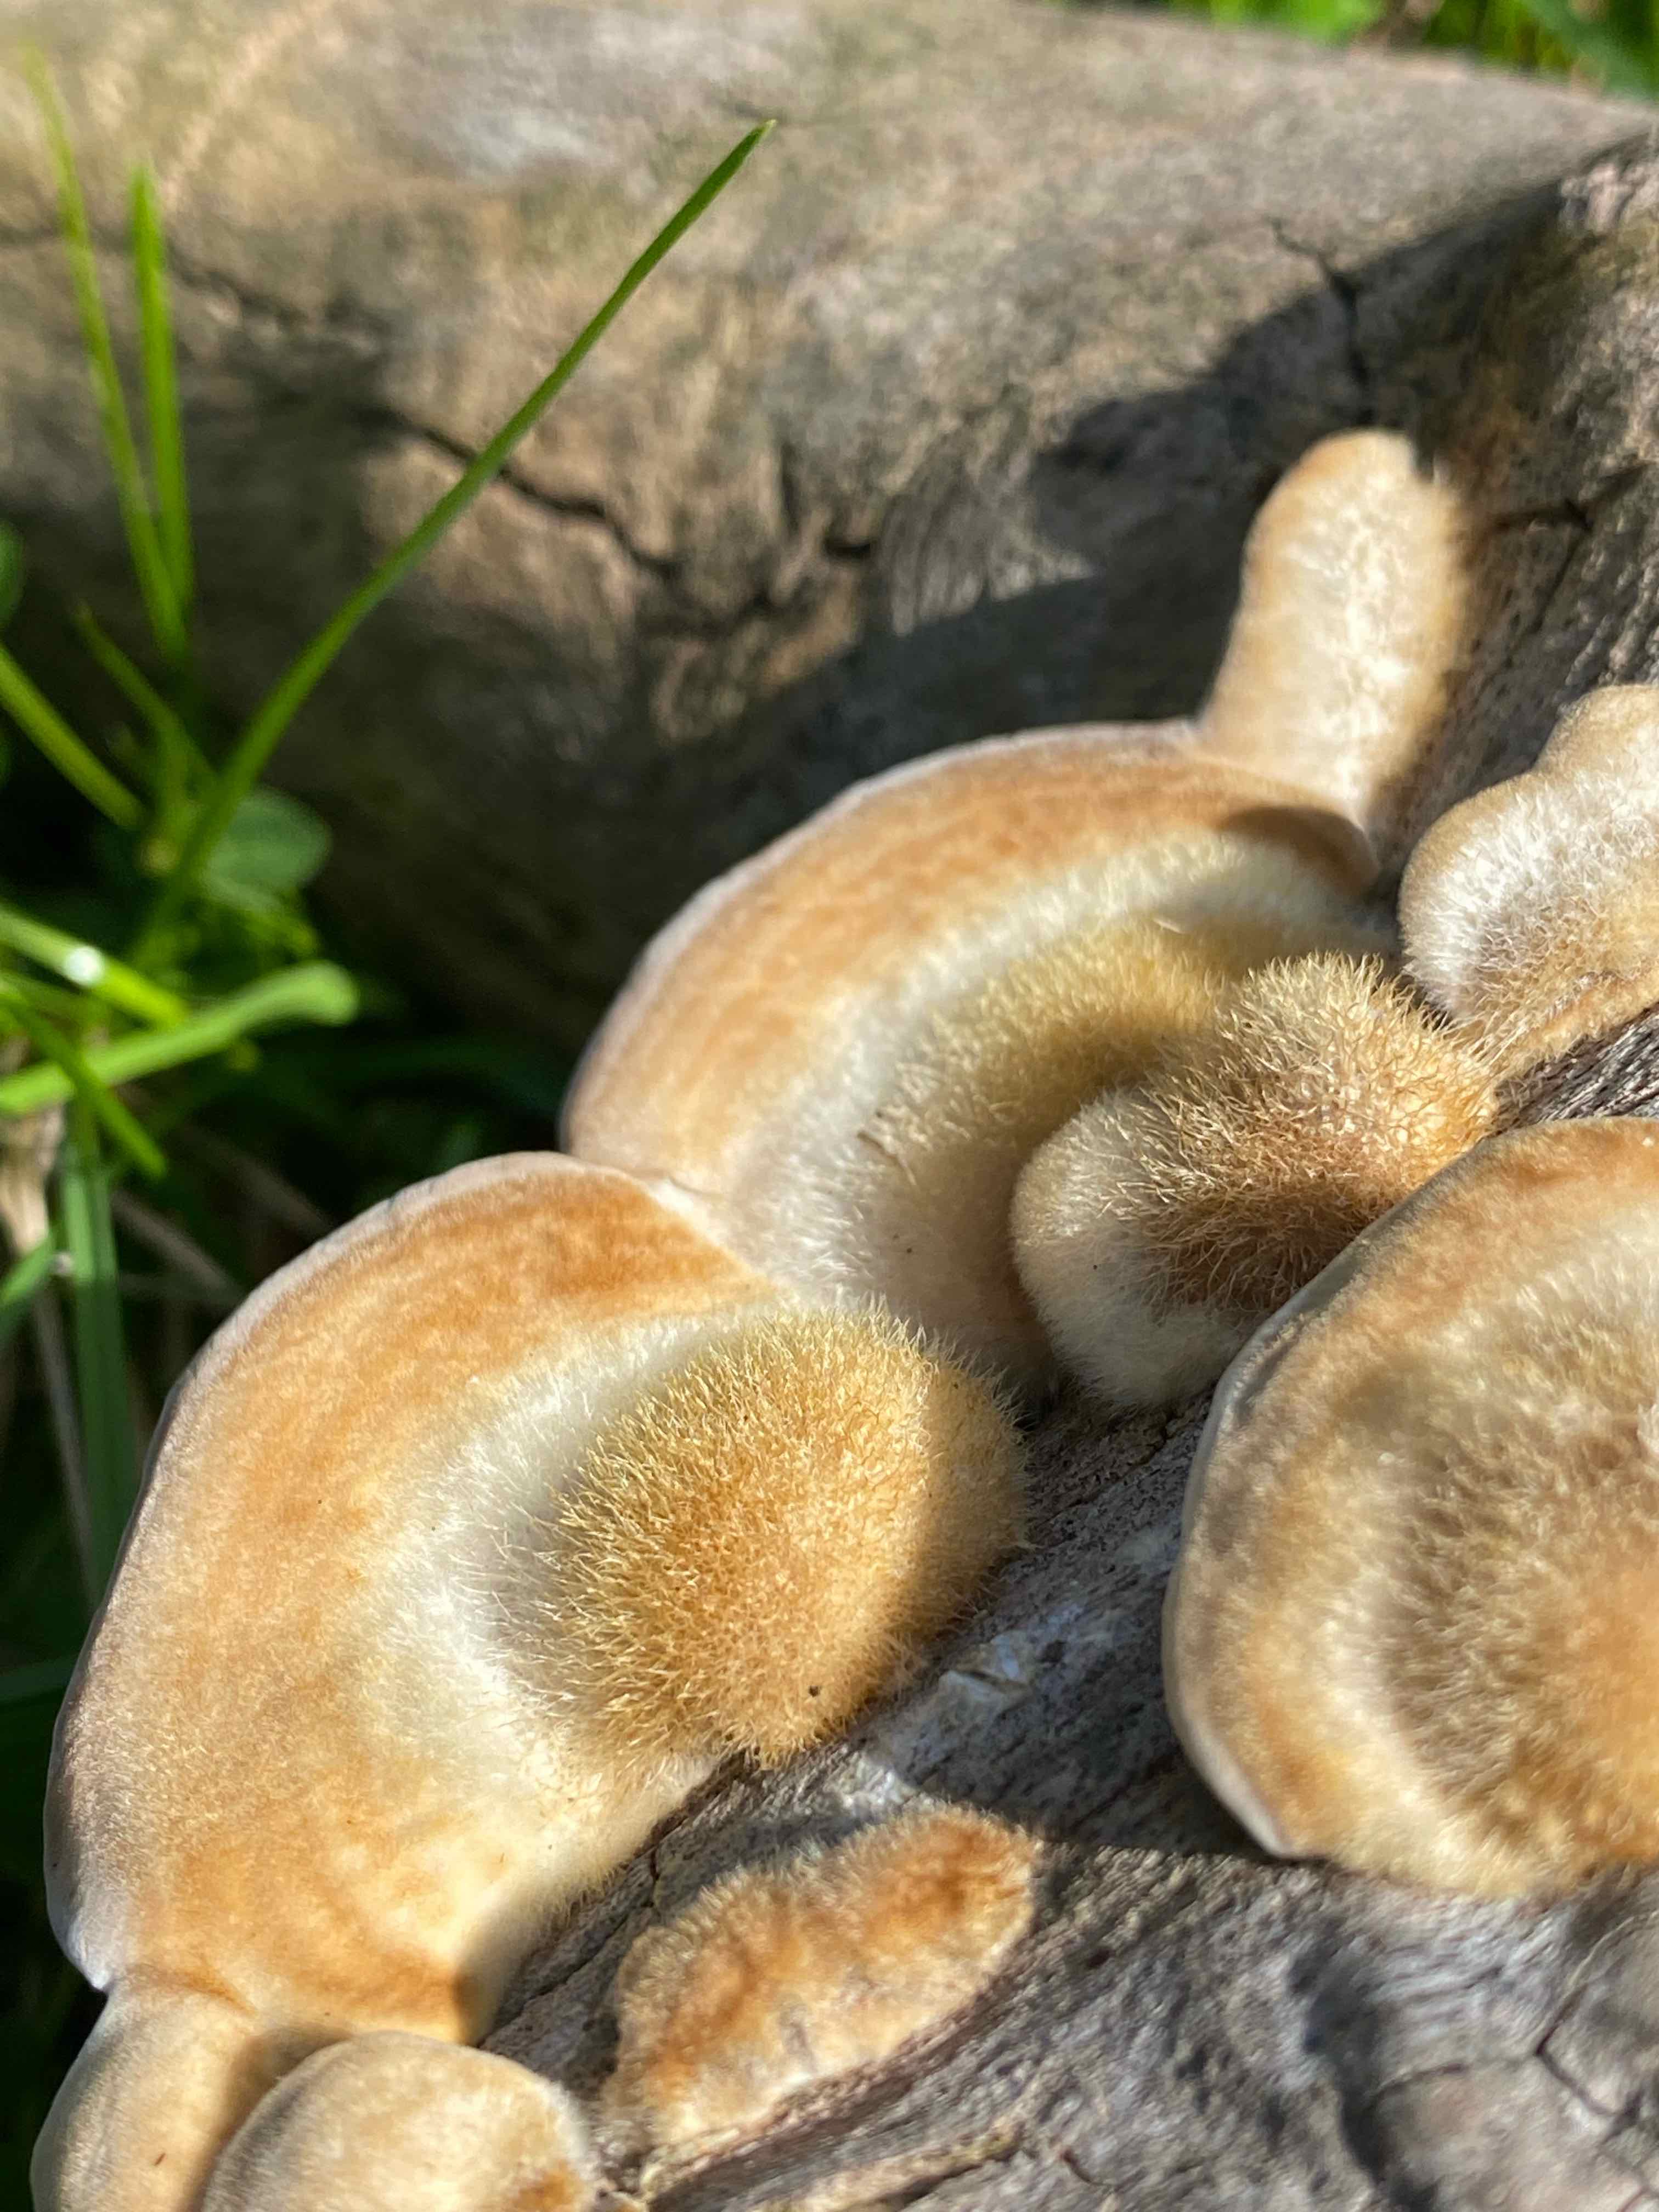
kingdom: Fungi
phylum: Basidiomycota
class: Agaricomycetes
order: Polyporales
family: Polyporaceae
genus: Trametes
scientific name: Trametes hirsuta
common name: håret læderporesvamp
